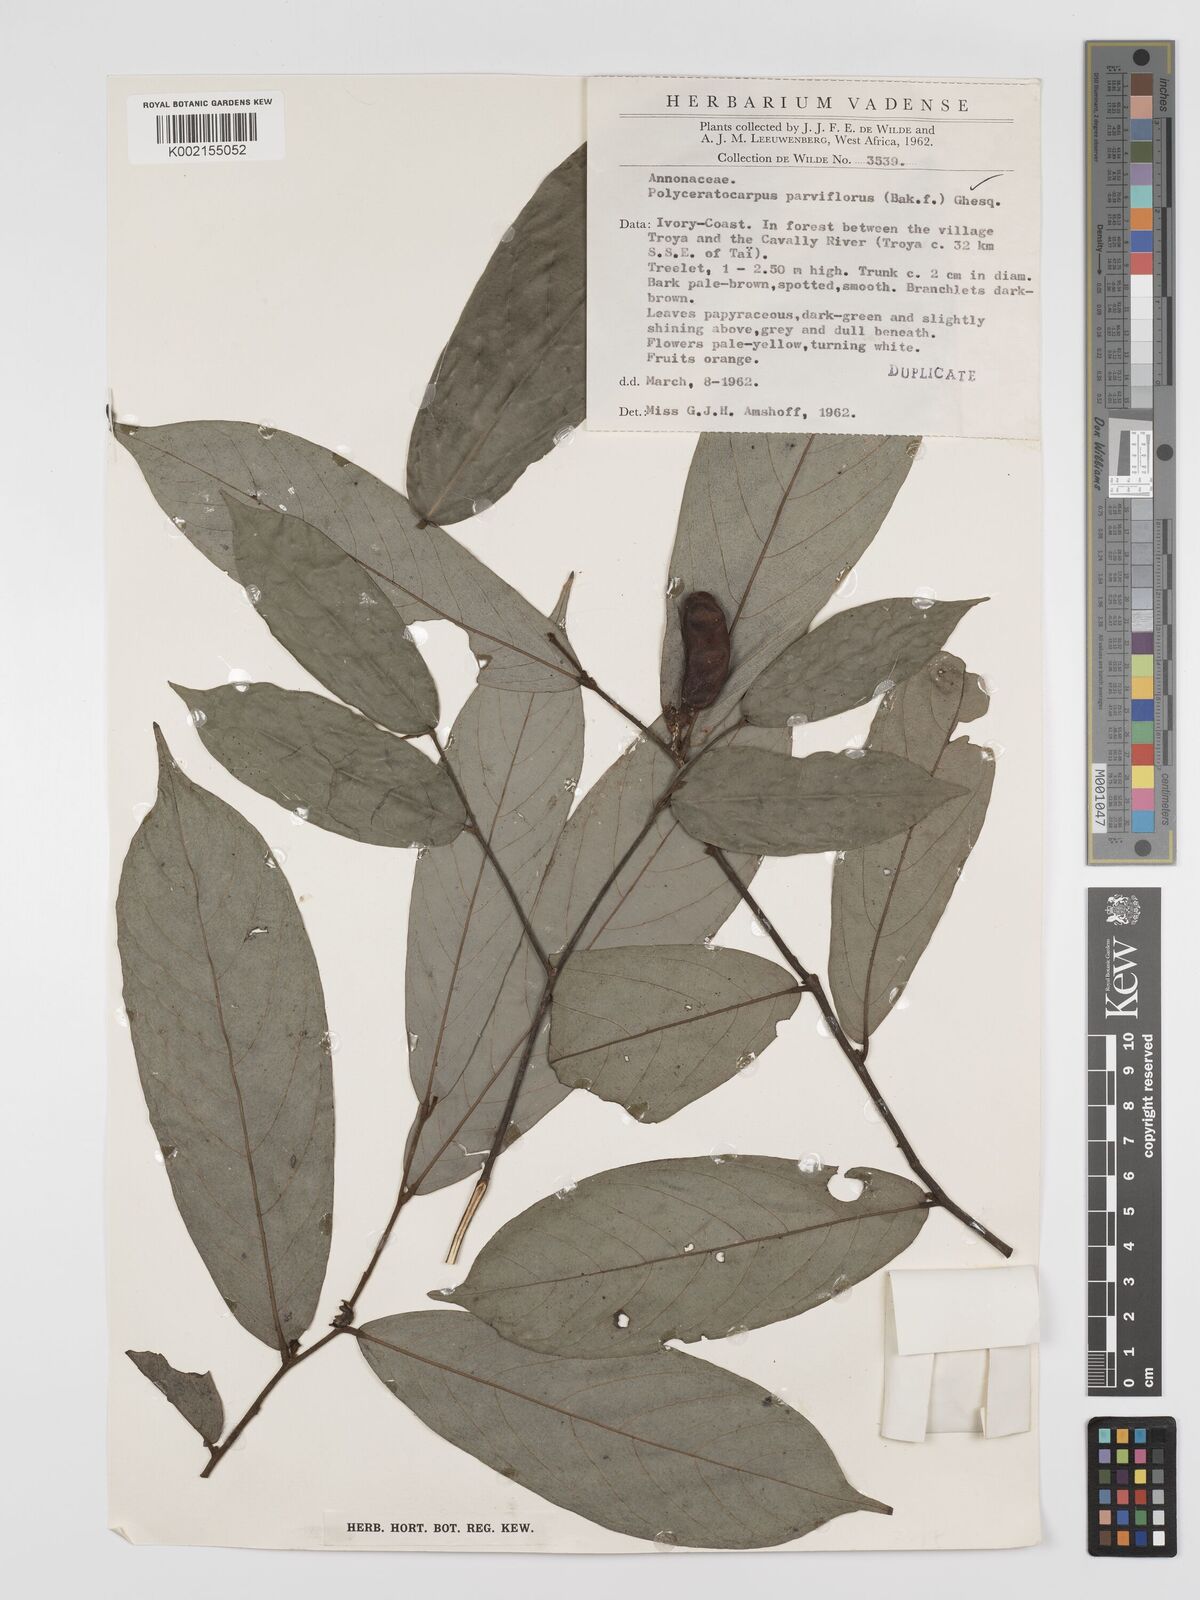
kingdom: Plantae
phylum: Tracheophyta
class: Magnoliopsida
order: Magnoliales
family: Annonaceae
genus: Polyceratocarpus
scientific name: Polyceratocarpus parviflorus
